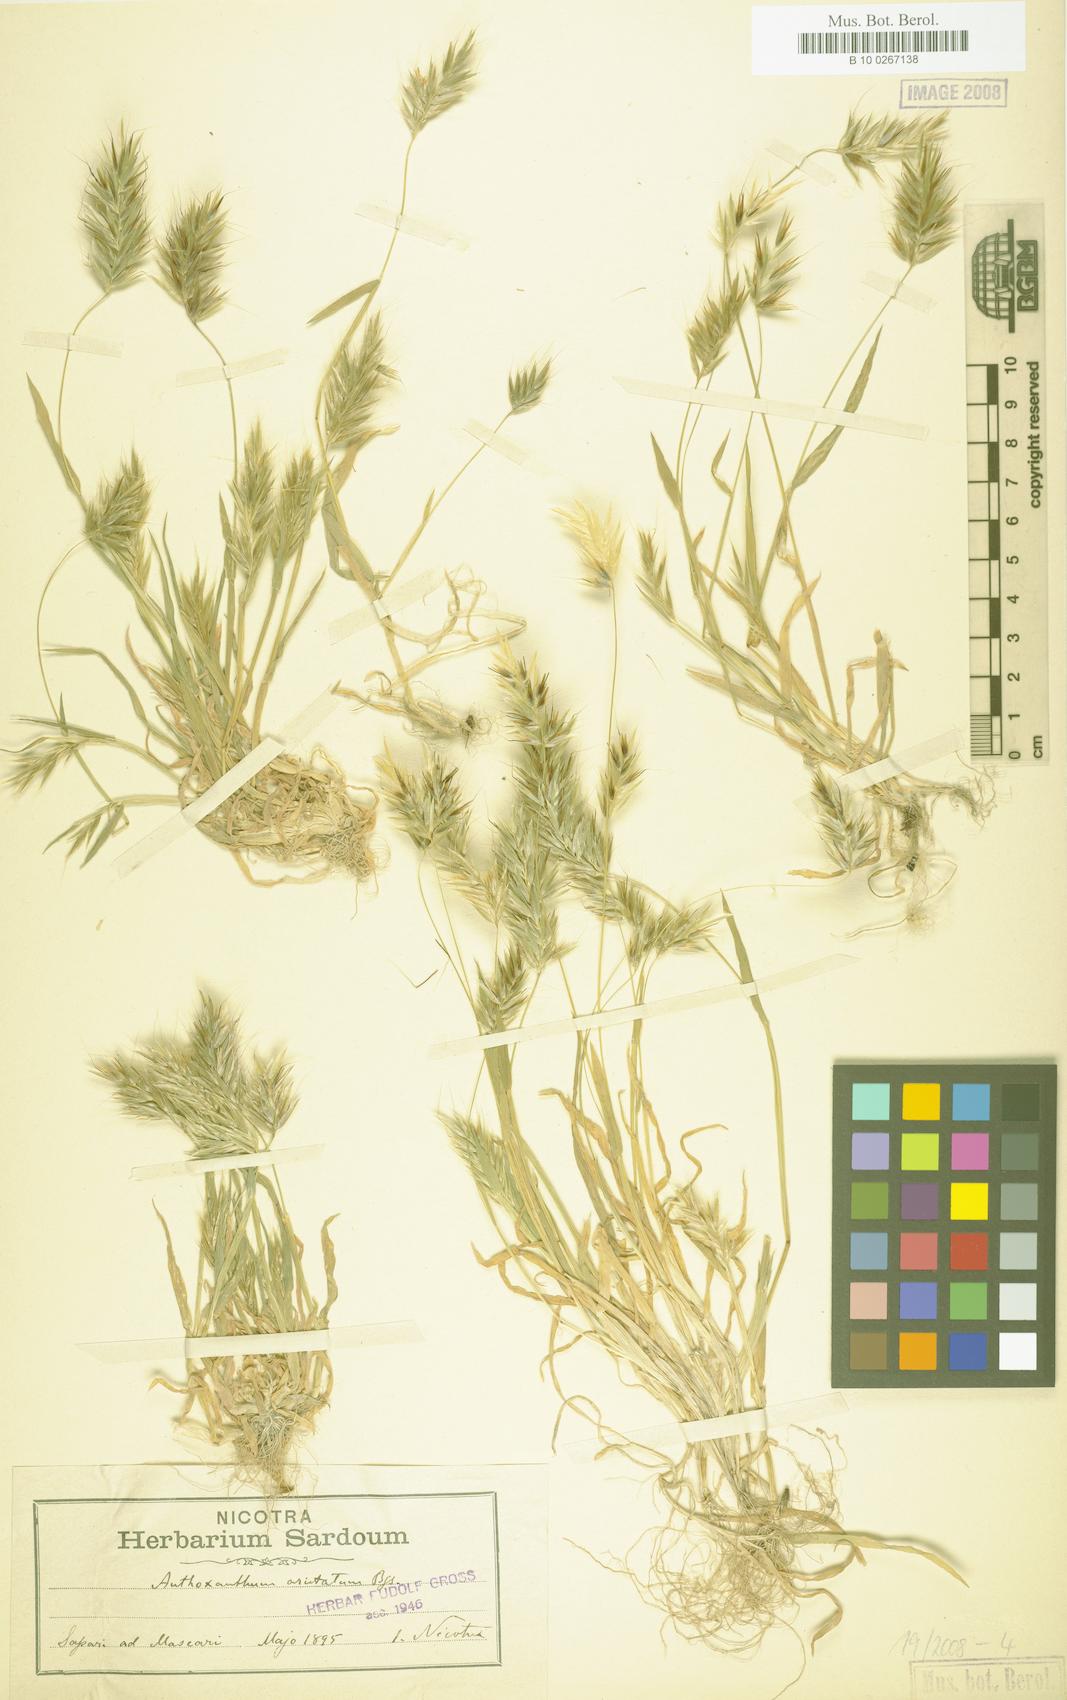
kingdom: Plantae
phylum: Tracheophyta
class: Liliopsida
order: Poales
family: Poaceae
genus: Anthoxanthum
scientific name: Anthoxanthum aristatum
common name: Annual vernal-grass
